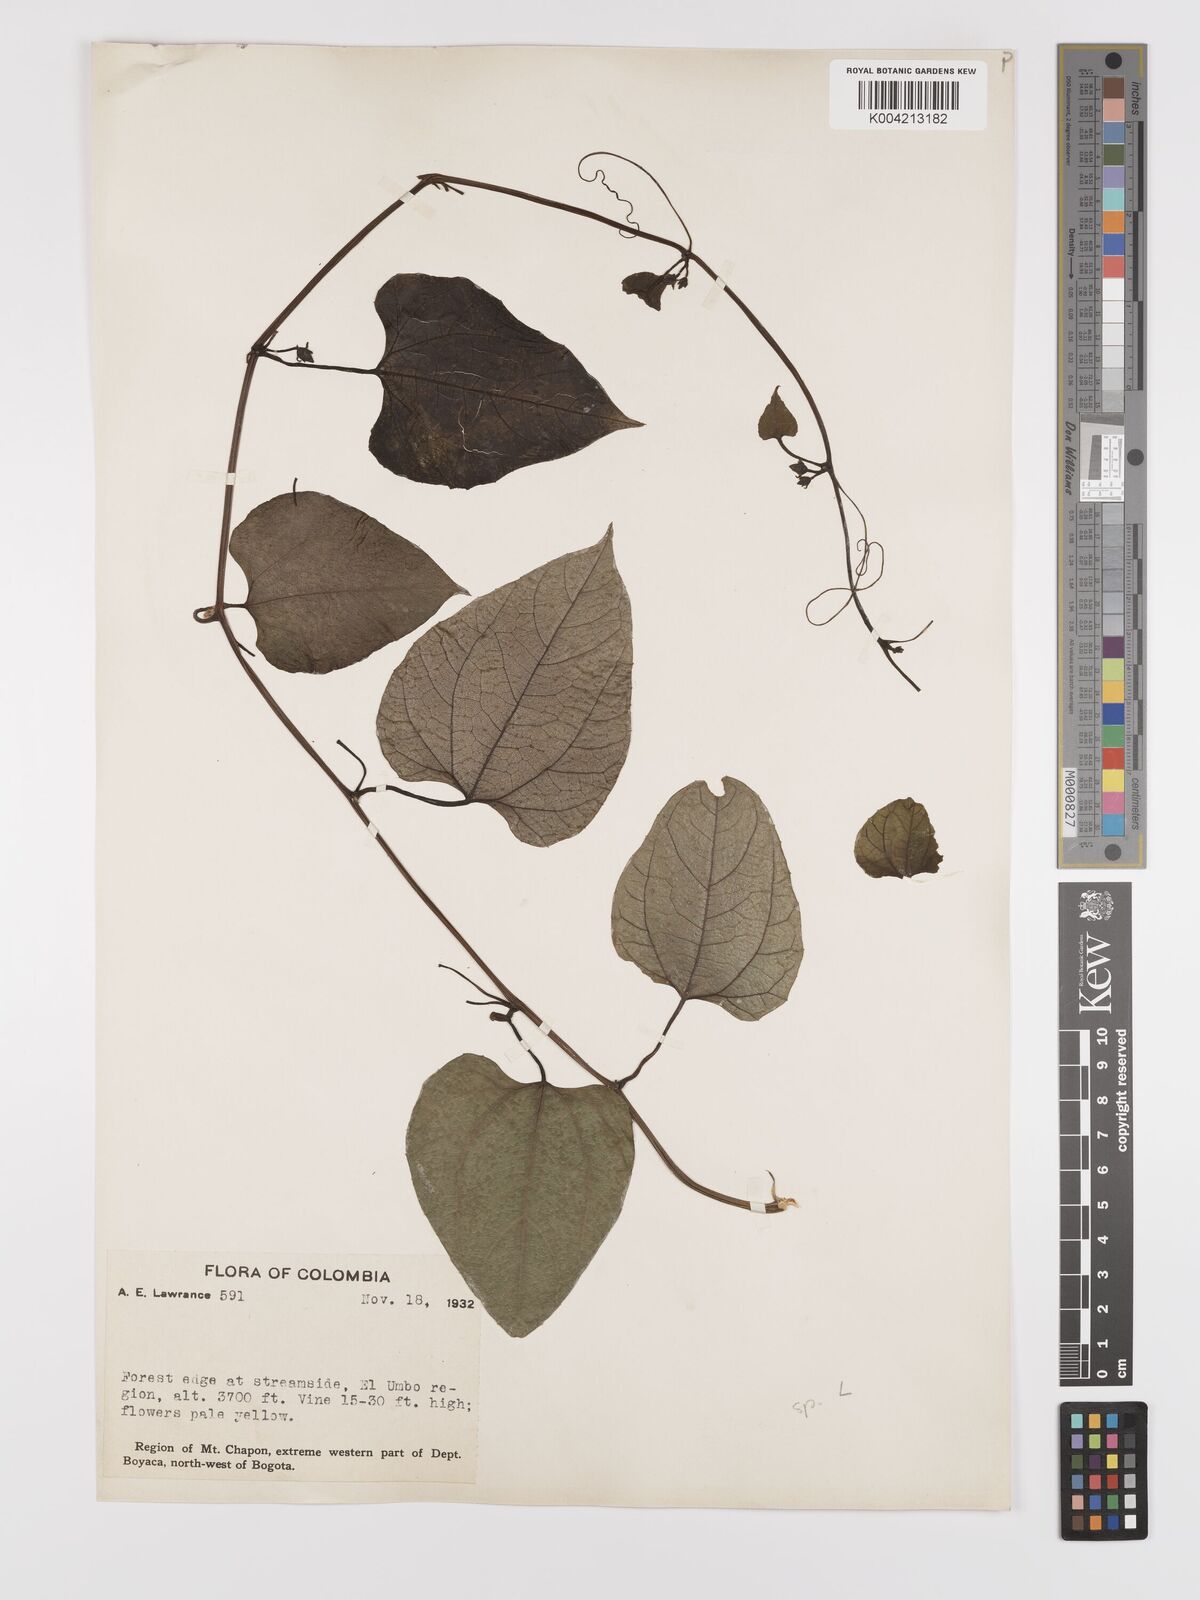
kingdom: Plantae
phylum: Tracheophyta
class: Magnoliopsida
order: Cucurbitales
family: Cucurbitaceae
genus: Cayaponia
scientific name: Cayaponia cordata
